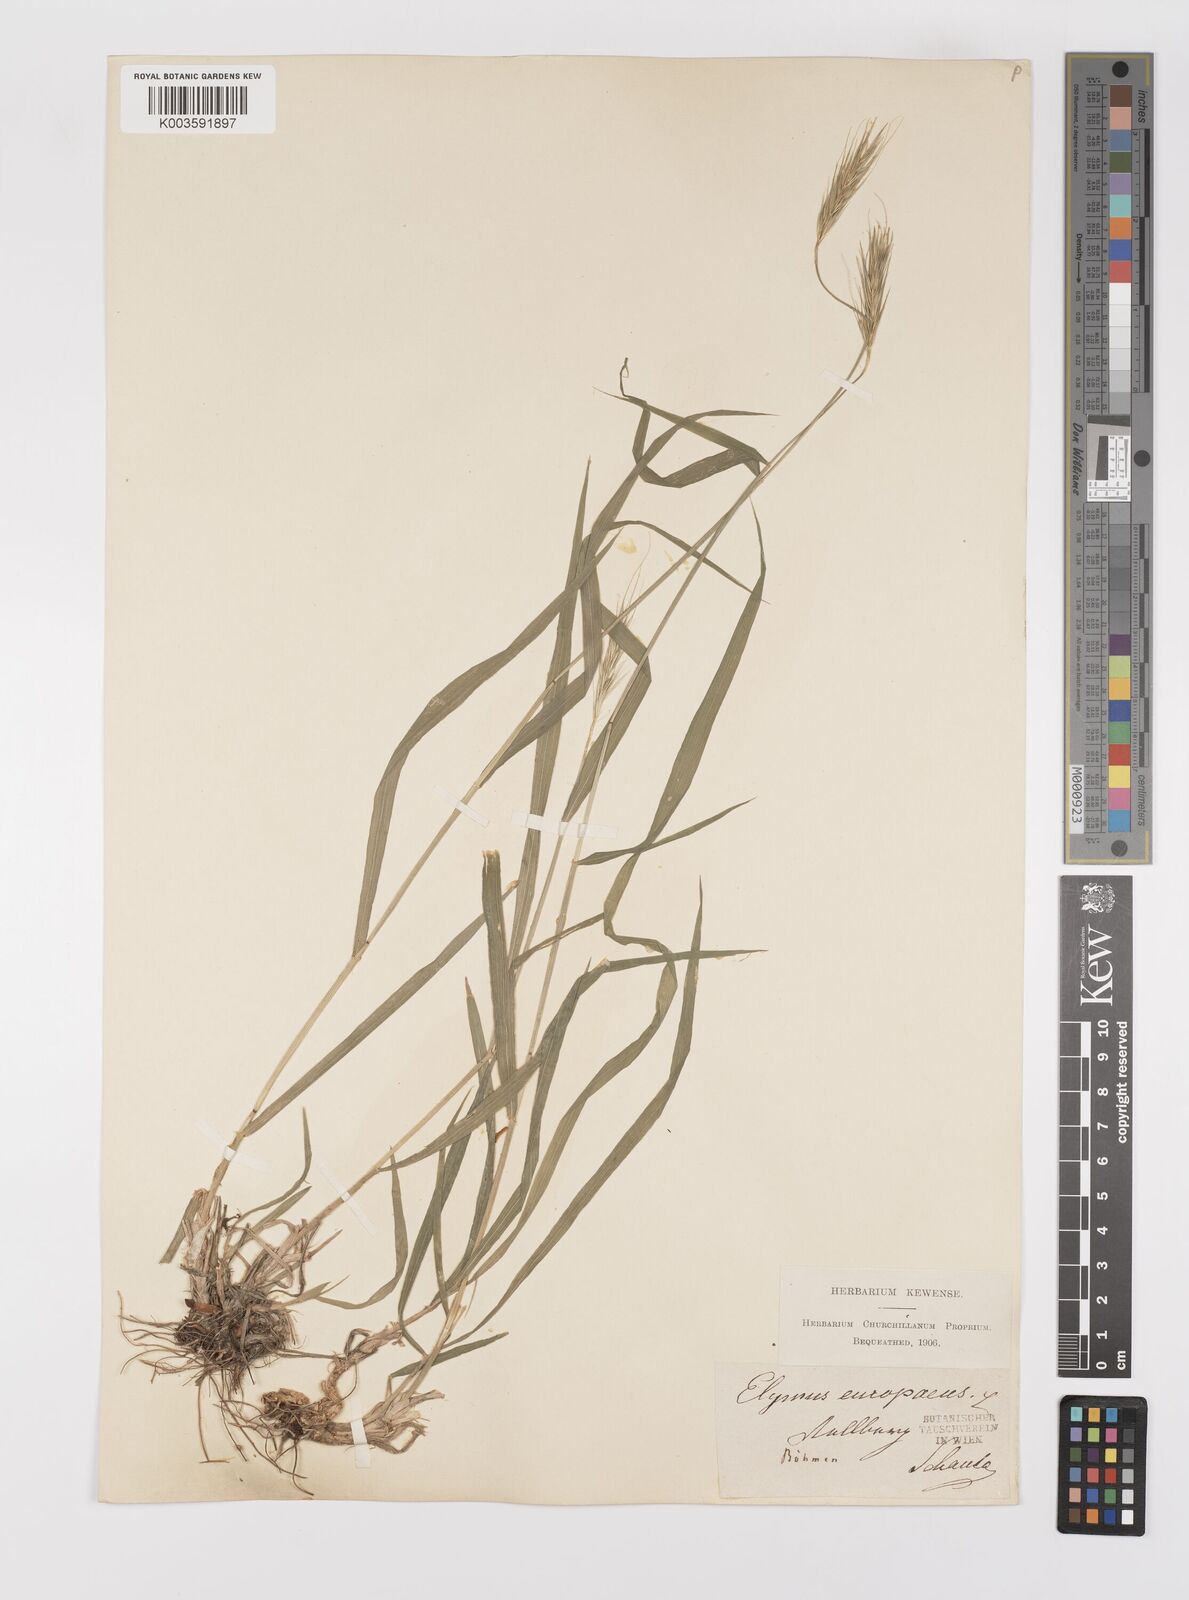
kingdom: Plantae
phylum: Tracheophyta
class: Liliopsida
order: Poales
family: Poaceae
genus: Hordelymus
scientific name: Hordelymus europaeus
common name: Wood-barley
